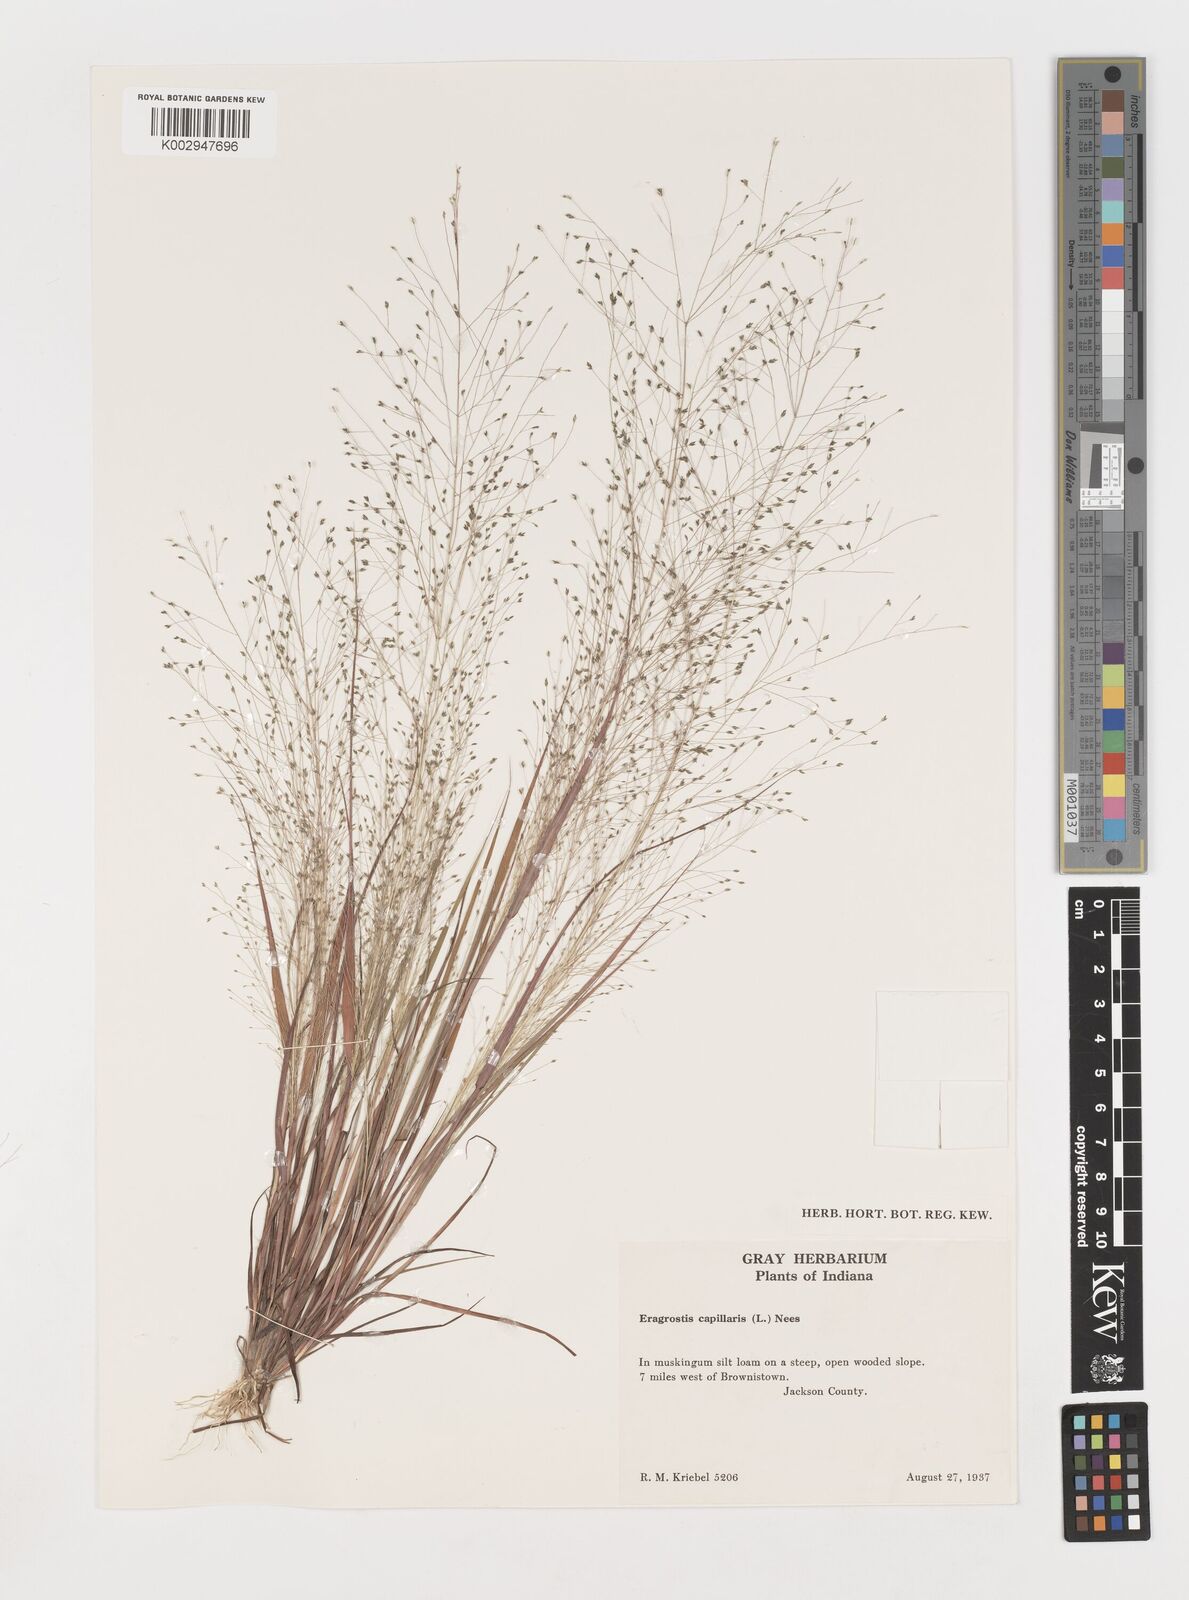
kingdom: Plantae
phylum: Tracheophyta
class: Liliopsida
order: Poales
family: Poaceae
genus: Eragrostis
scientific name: Eragrostis capillaris
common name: Hair-like lovegrass
